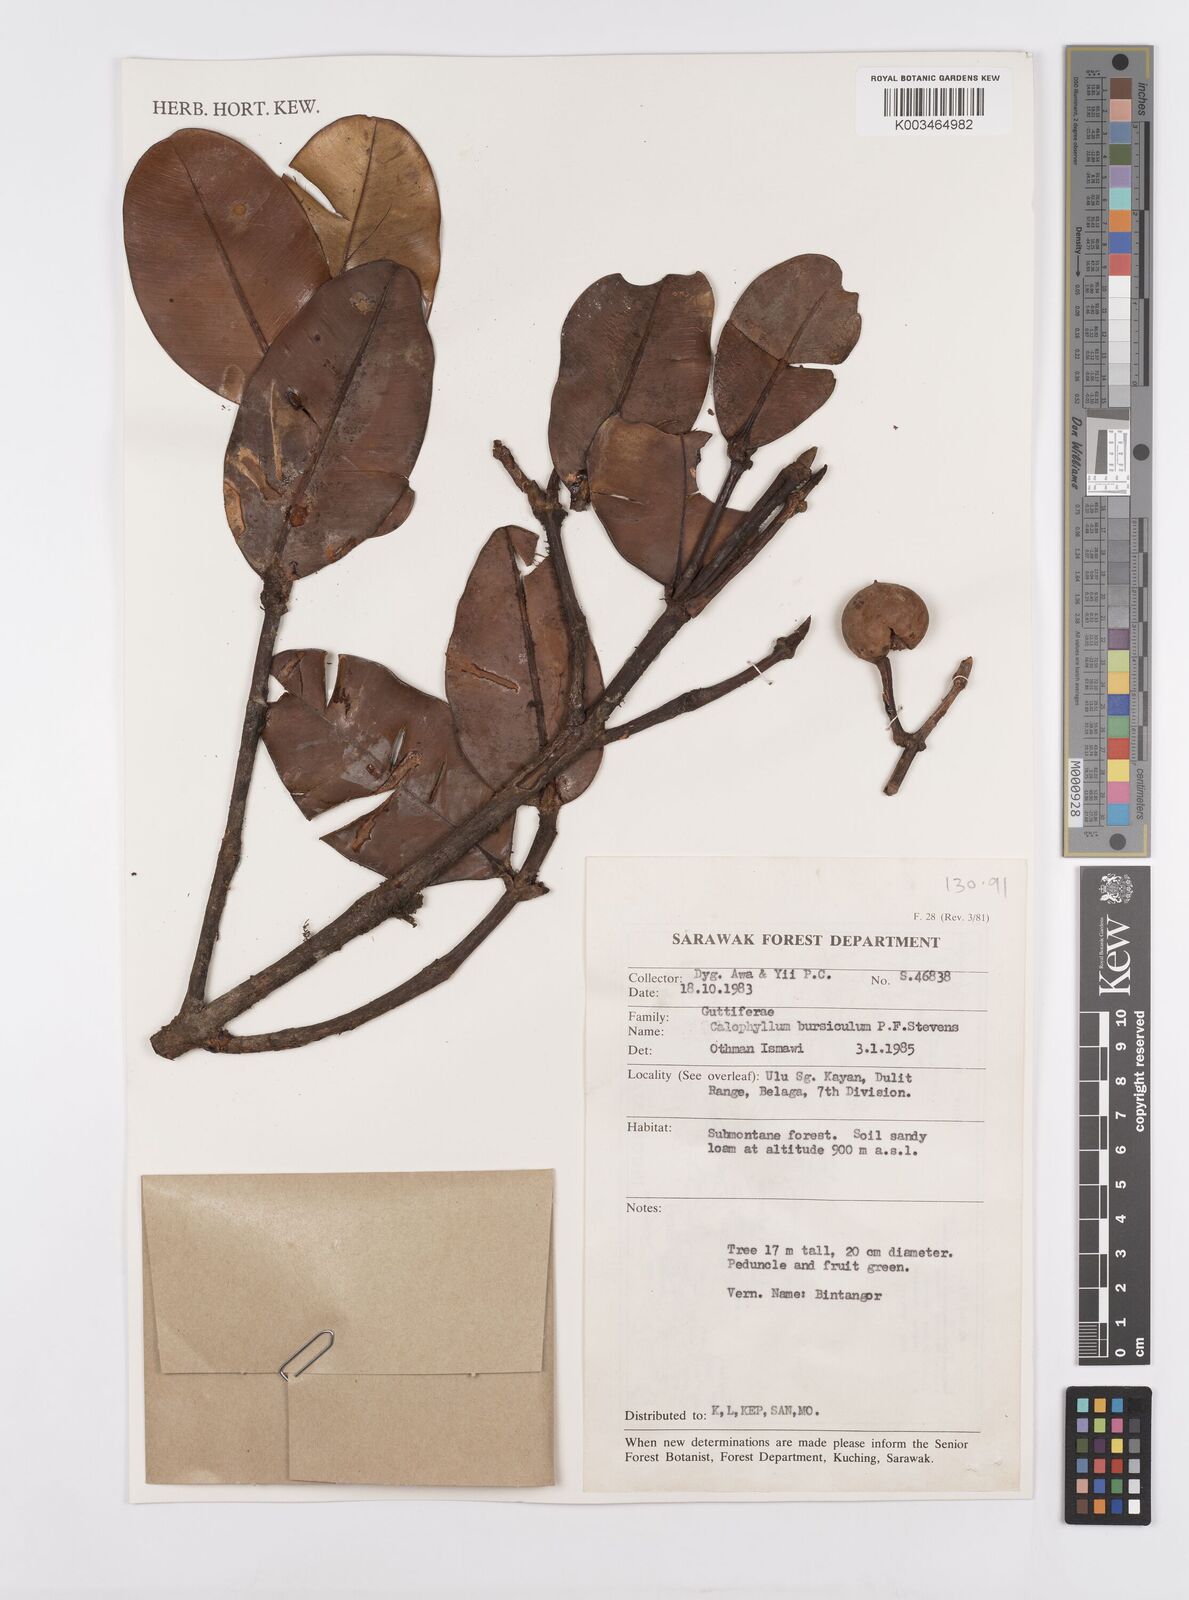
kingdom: Plantae
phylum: Tracheophyta
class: Magnoliopsida
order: Malpighiales
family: Calophyllaceae
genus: Calophyllum
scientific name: Calophyllum
